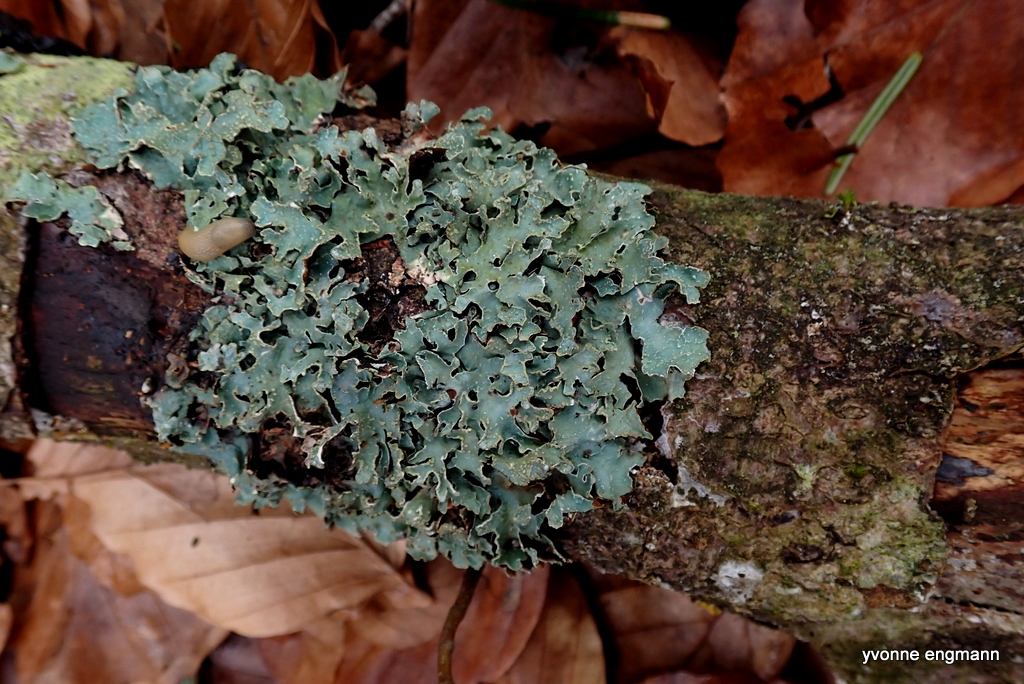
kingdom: Fungi
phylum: Ascomycota
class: Lecanoromycetes
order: Lecanorales
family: Parmeliaceae
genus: Parmelia
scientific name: Parmelia sulcata
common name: rynket skållav
